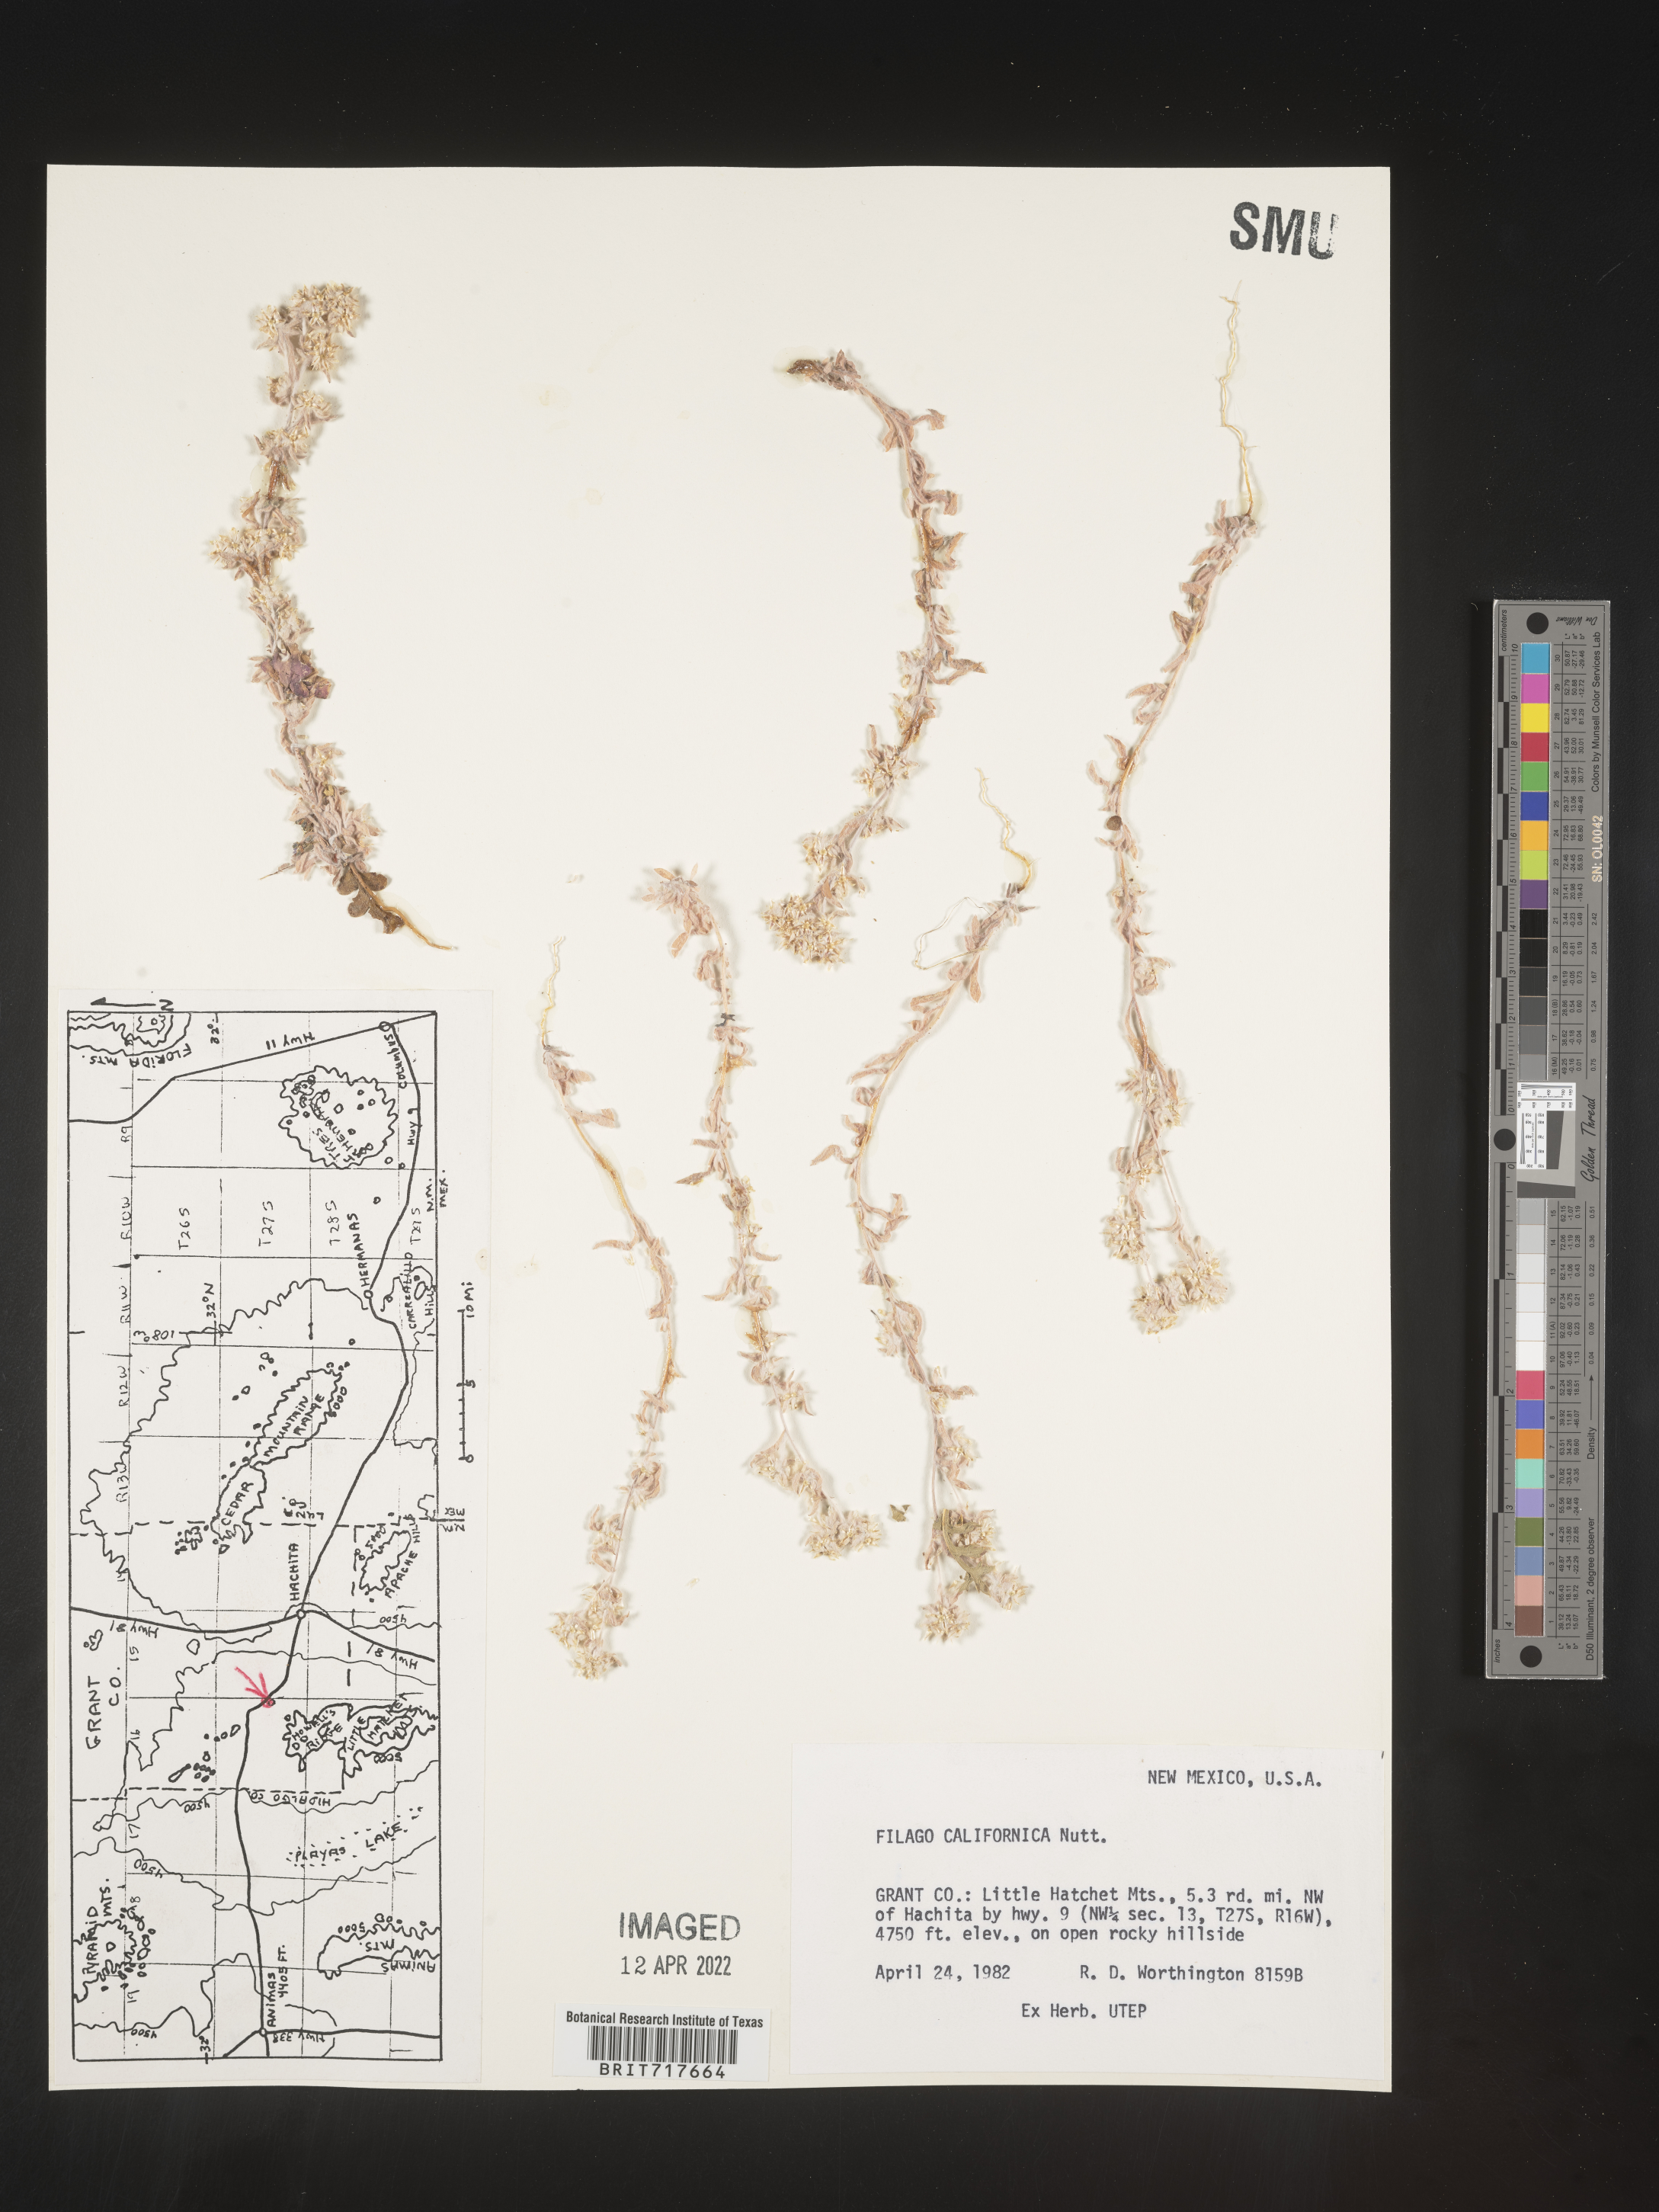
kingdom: Plantae
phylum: Tracheophyta
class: Magnoliopsida
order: Asterales
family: Asteraceae
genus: Logfia
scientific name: Logfia californica
